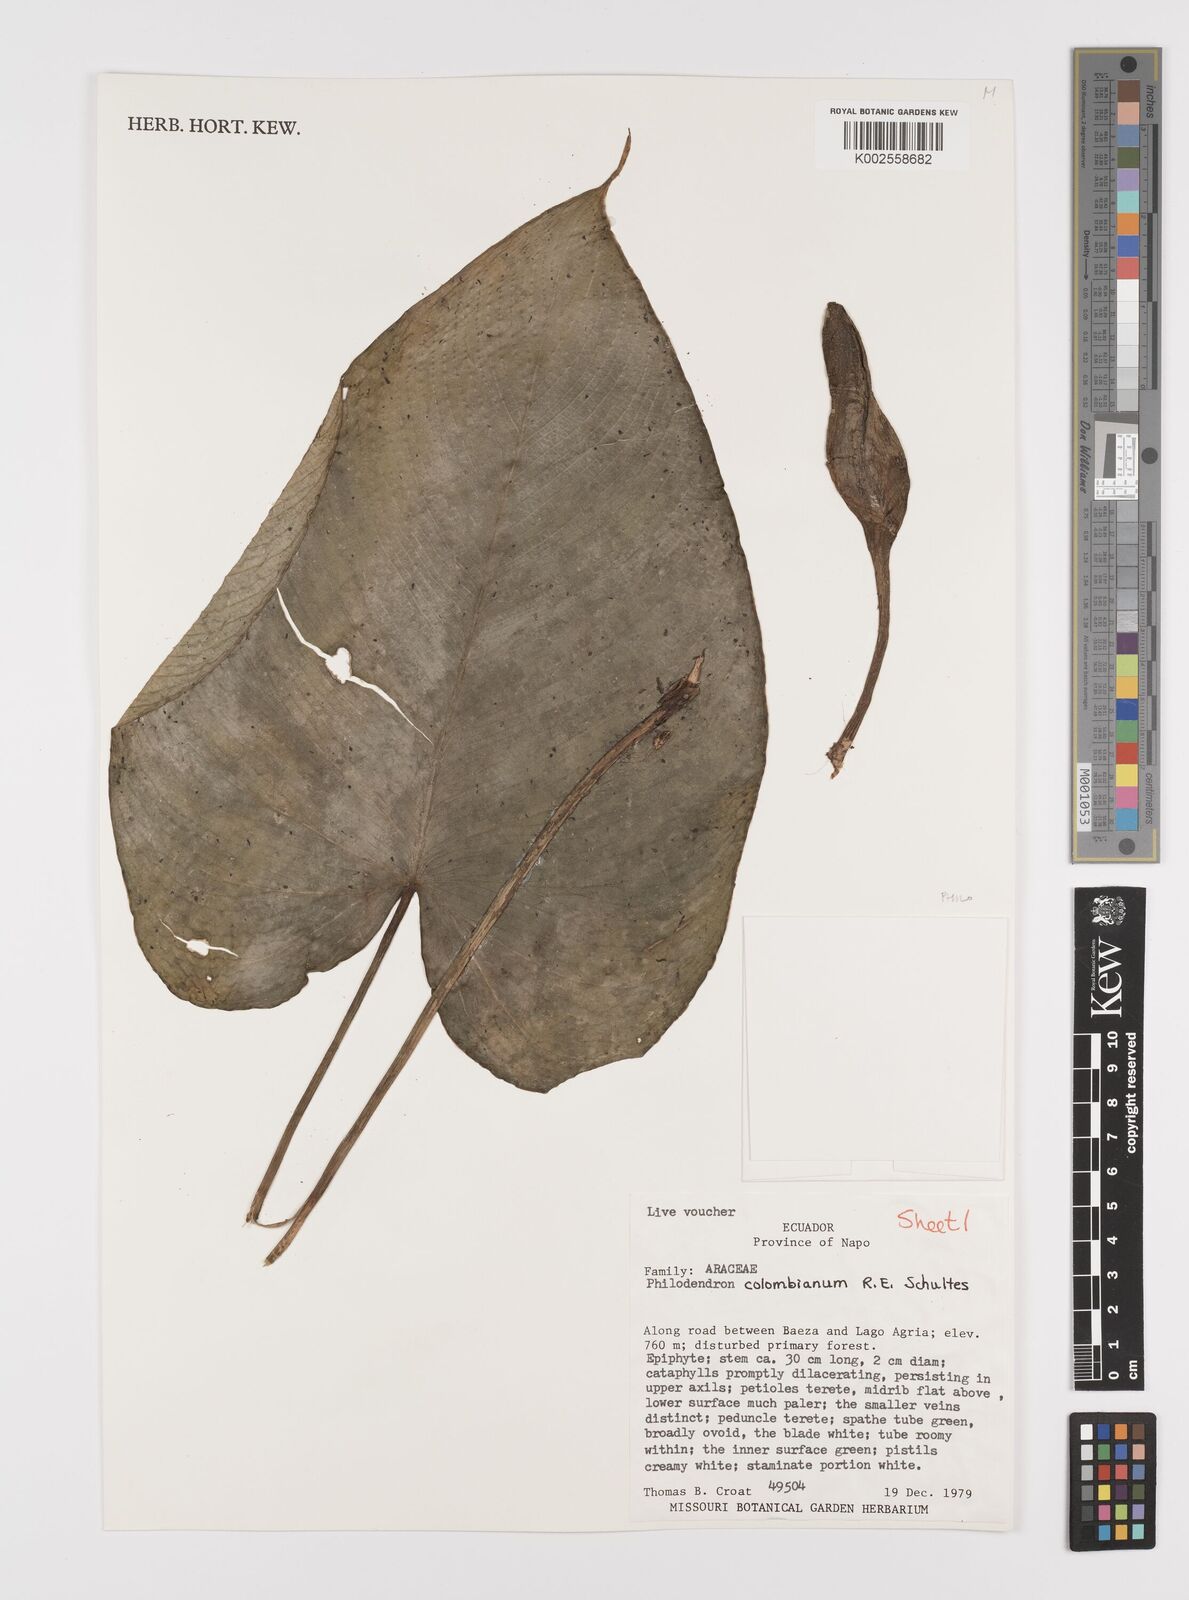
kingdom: Plantae
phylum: Tracheophyta
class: Liliopsida
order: Alismatales
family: Araceae
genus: Philodendron
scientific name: Philodendron colombianum
